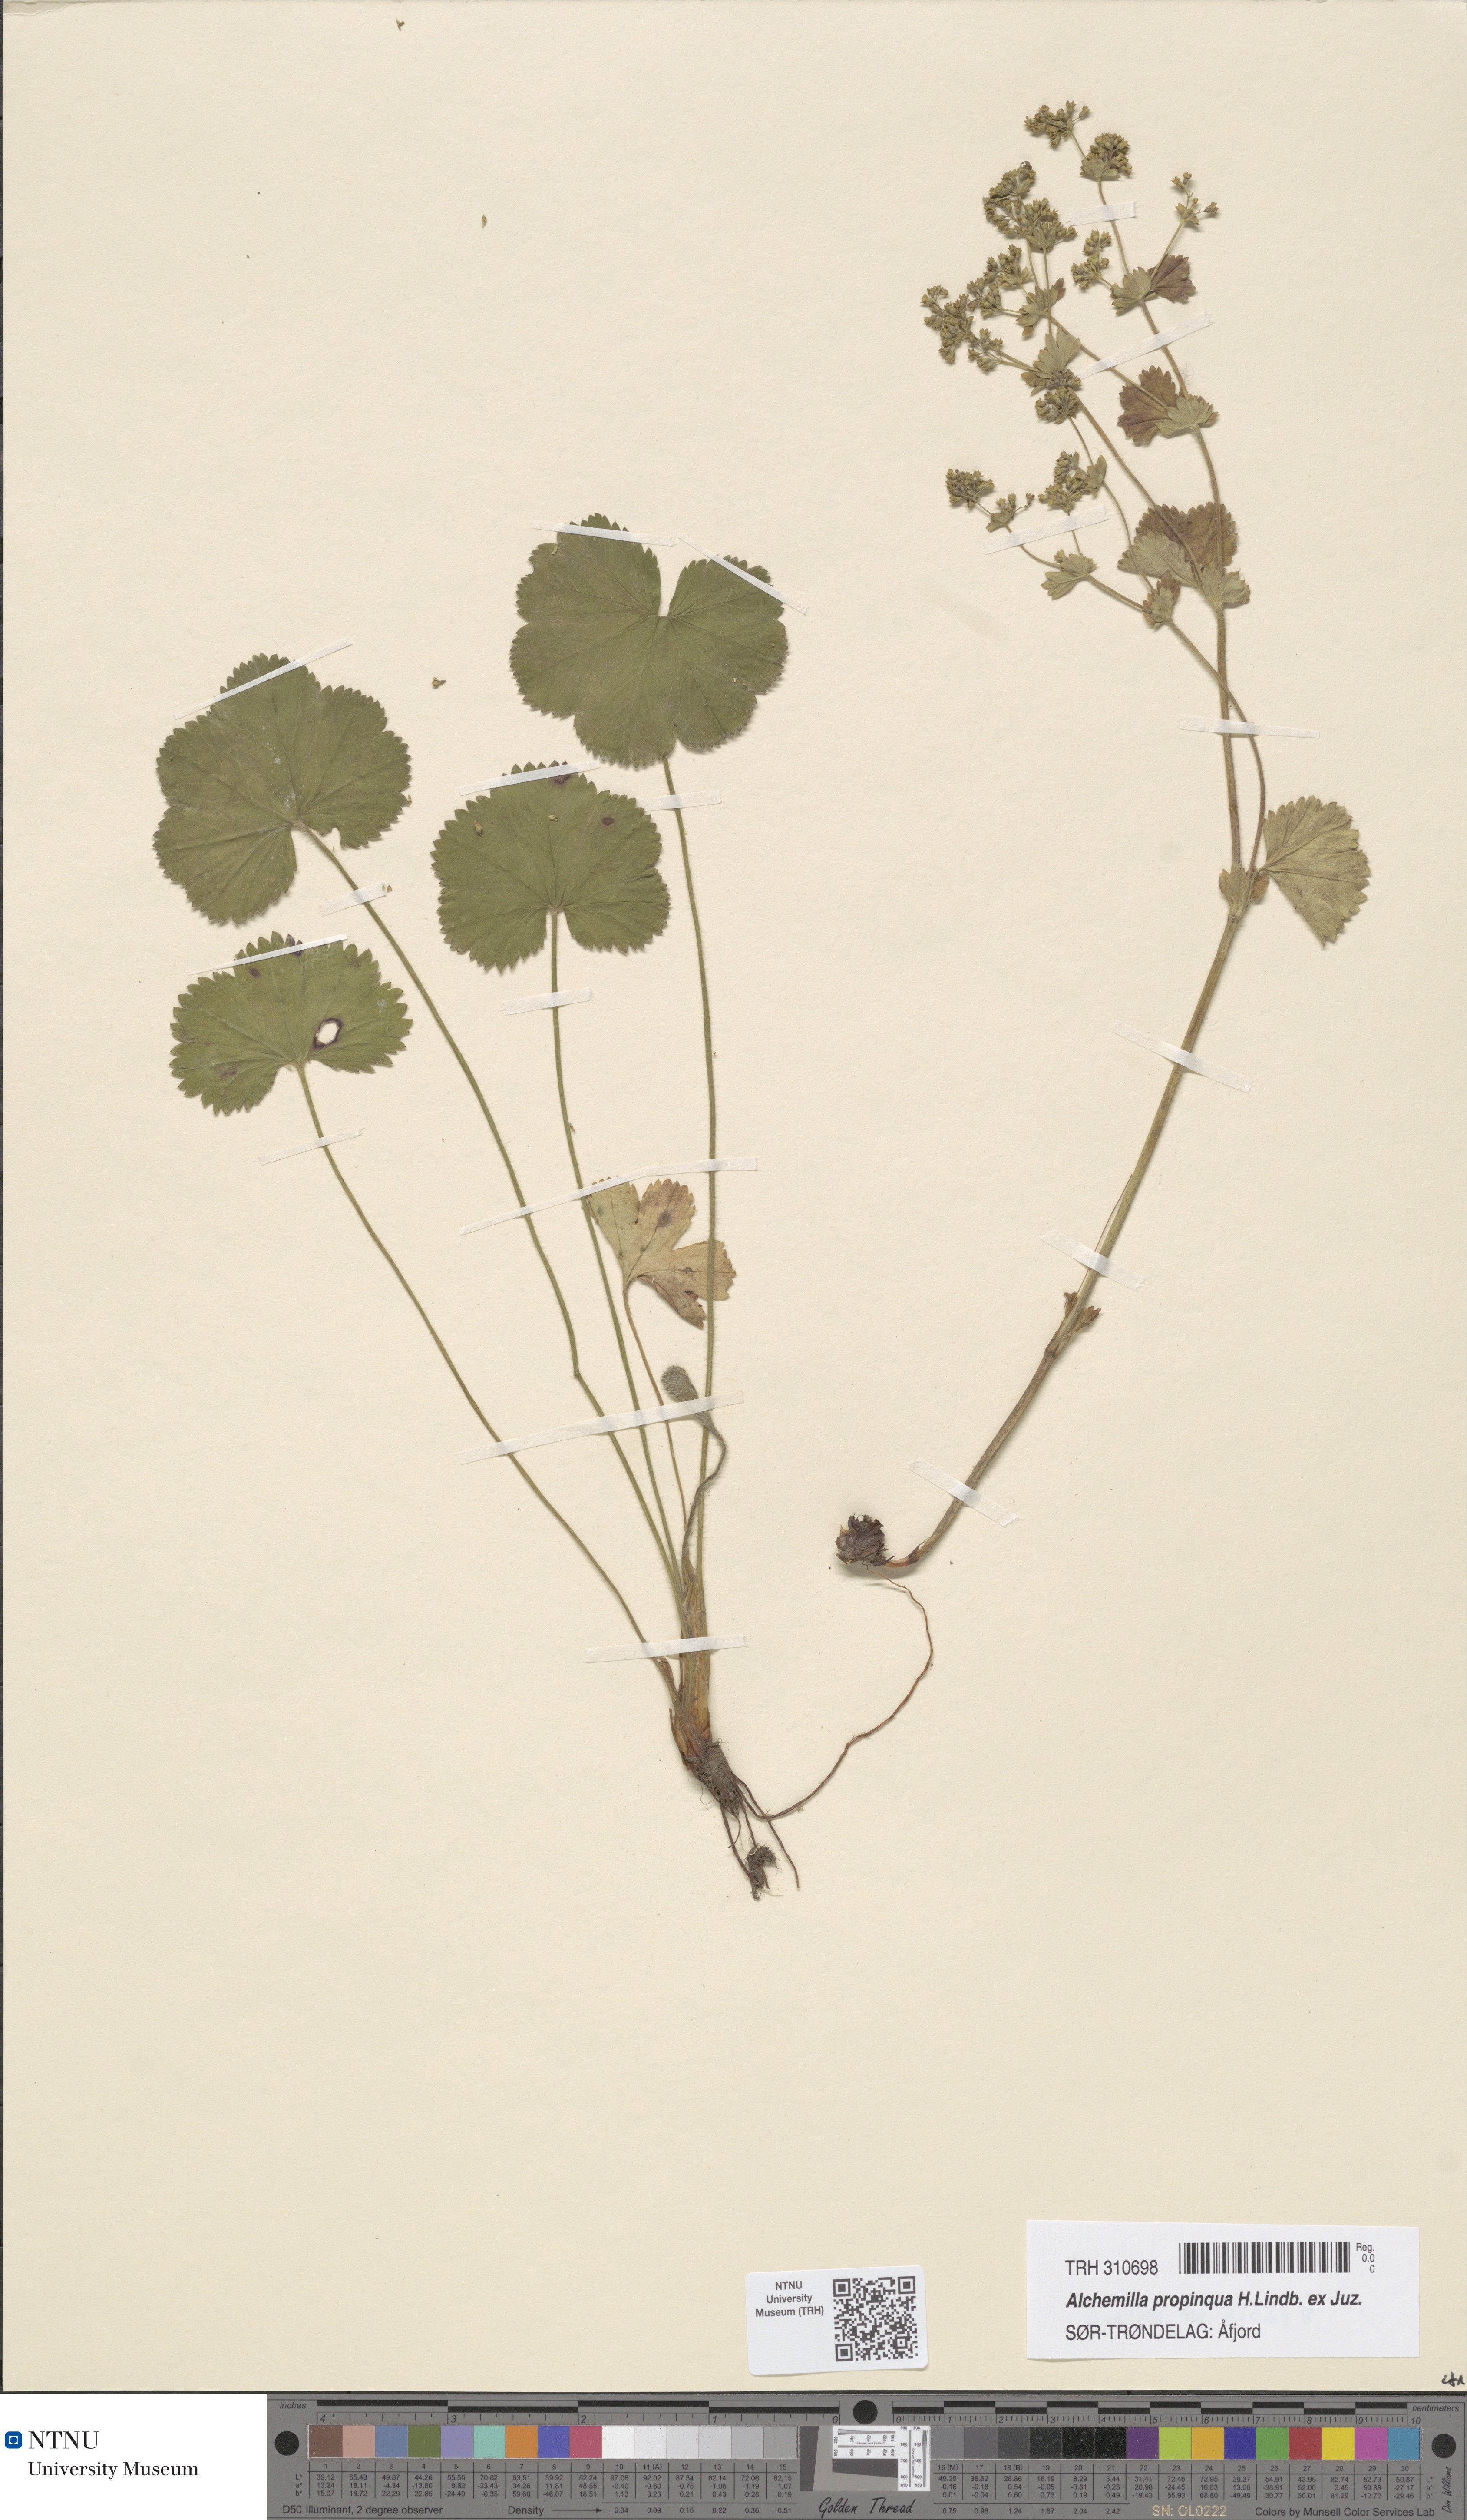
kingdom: Plantae
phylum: Tracheophyta
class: Magnoliopsida
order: Rosales
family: Rosaceae
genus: Alchemilla
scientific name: Alchemilla propinqua
